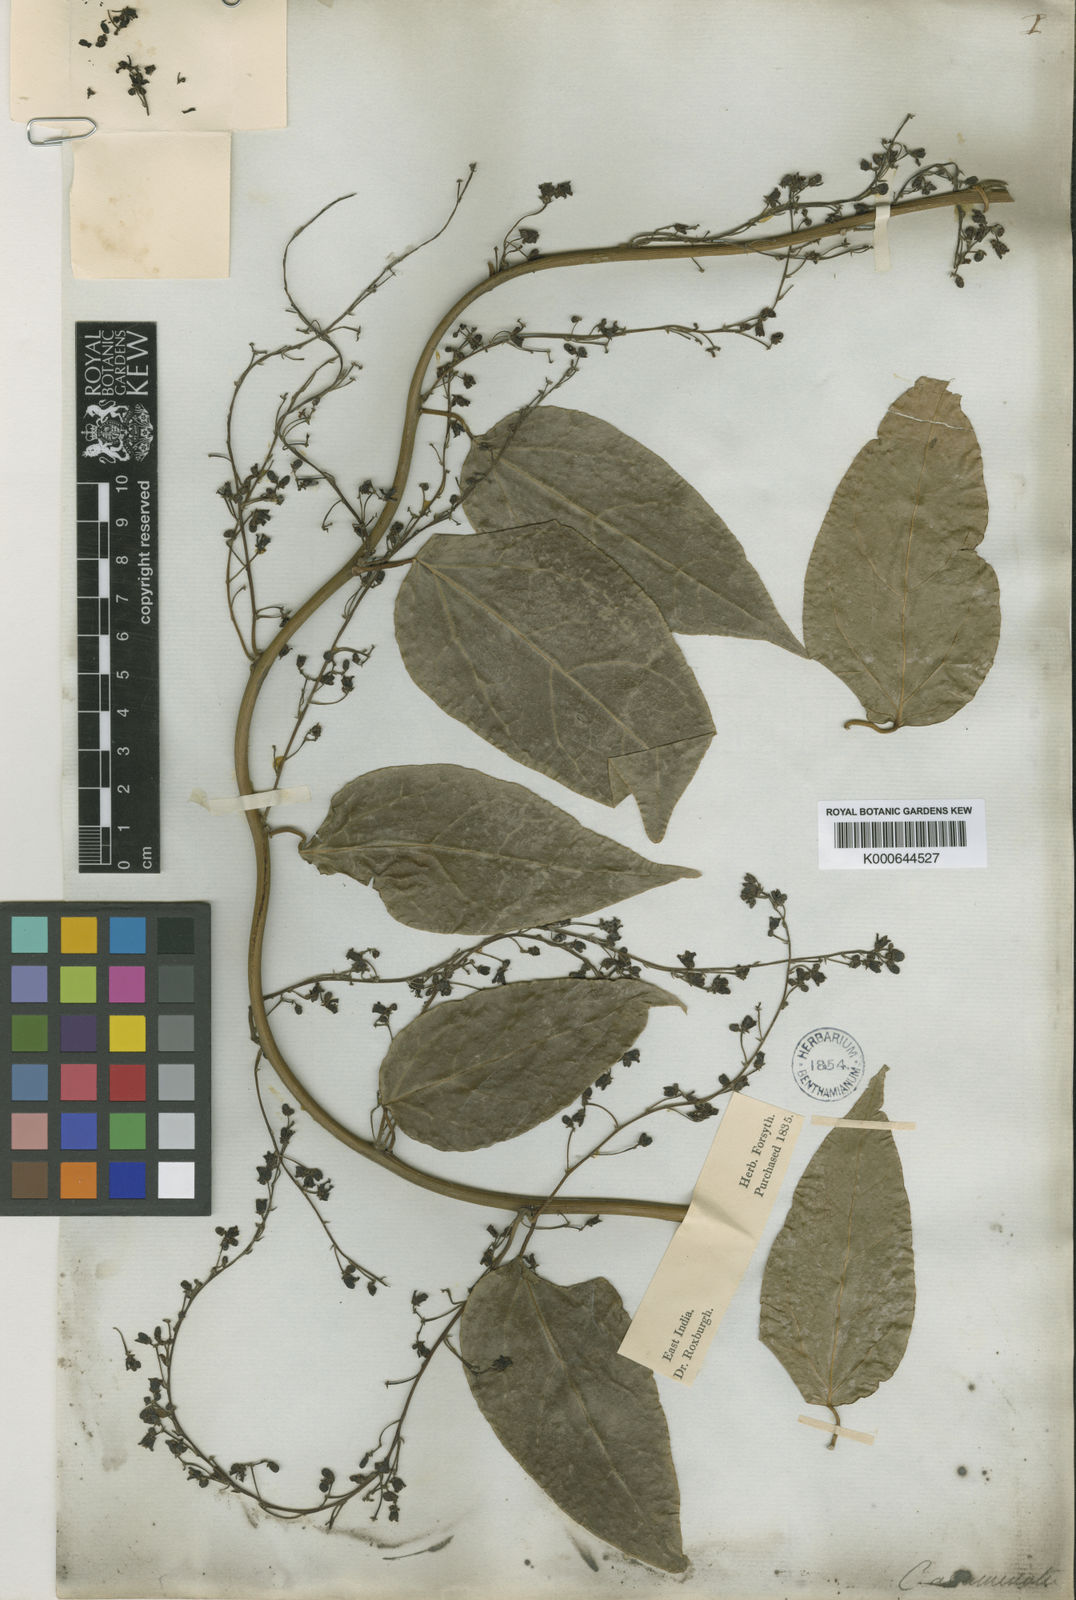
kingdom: Plantae
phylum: Tracheophyta
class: Magnoliopsida
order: Ranunculales
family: Menispermaceae
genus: Tiliacora
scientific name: Tiliacora acuminata
